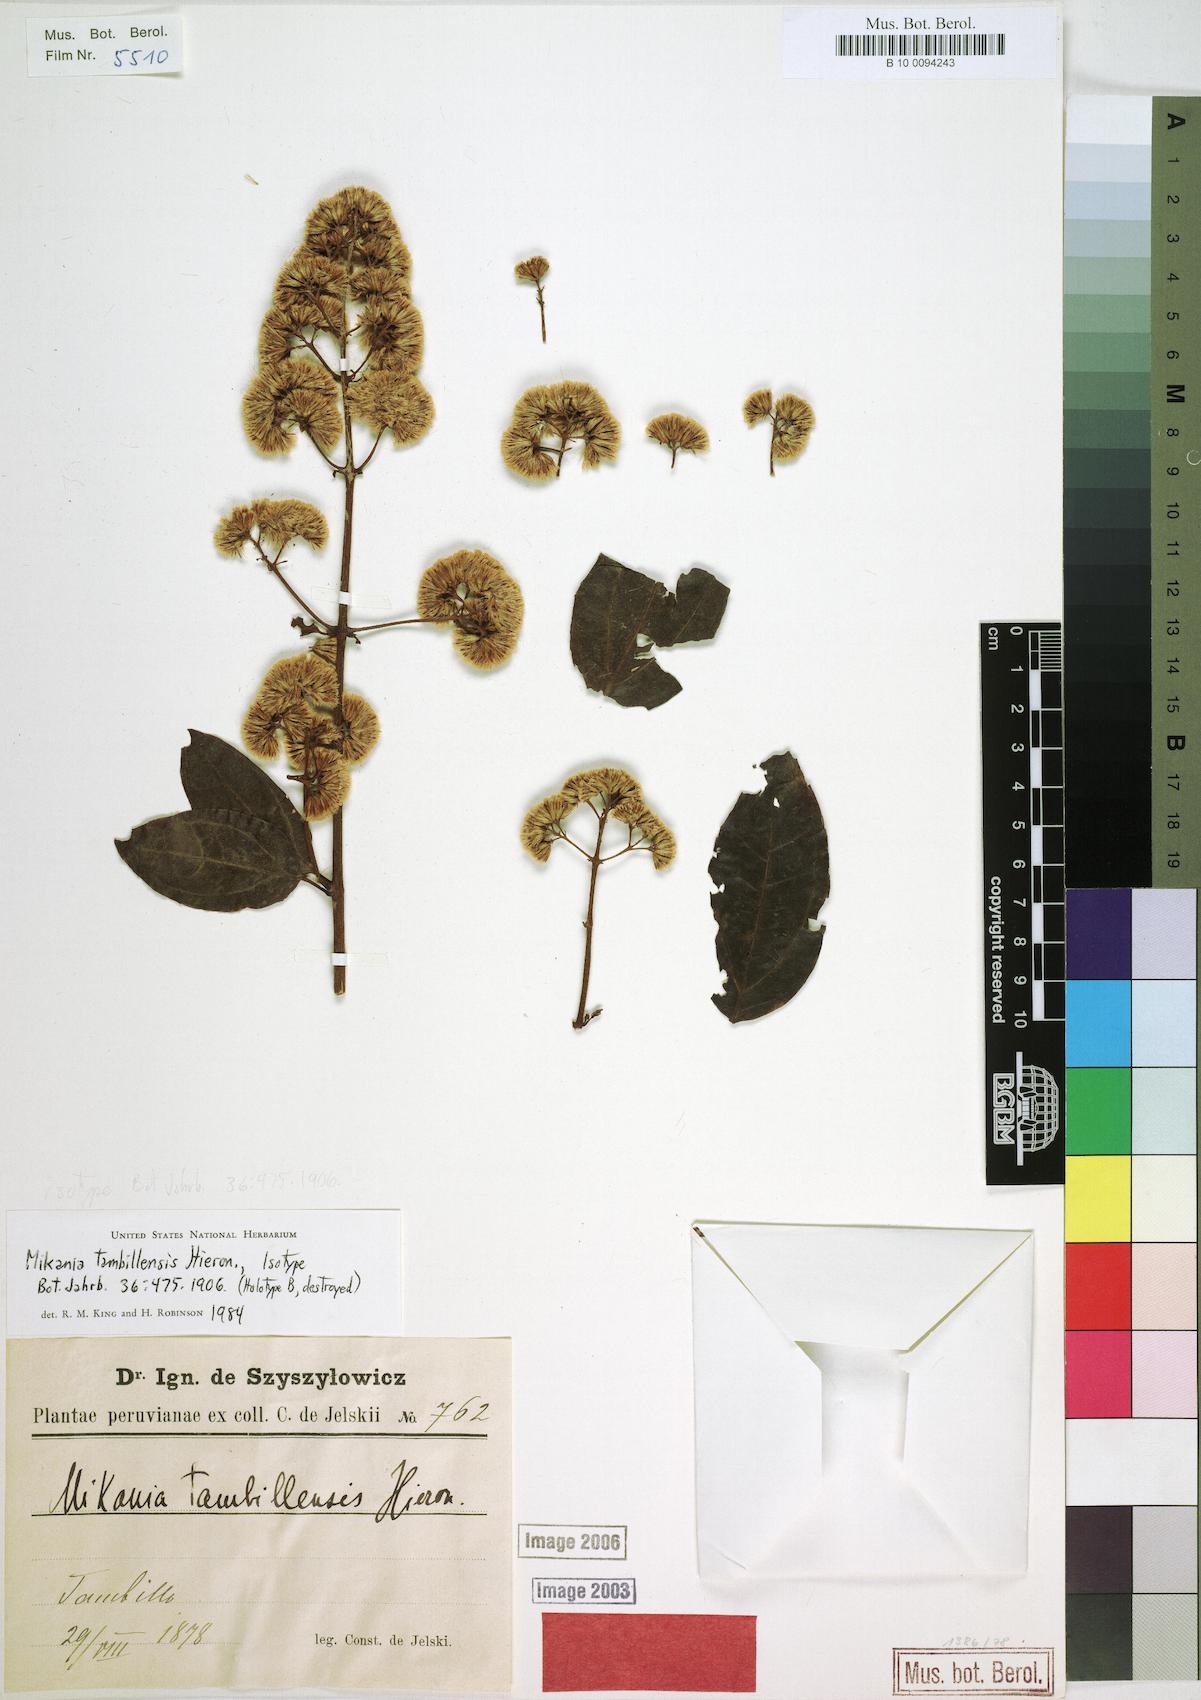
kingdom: Plantae
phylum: Tracheophyta
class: Magnoliopsida
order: Asterales
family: Asteraceae
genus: Mikania
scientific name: Mikania tambillensis
